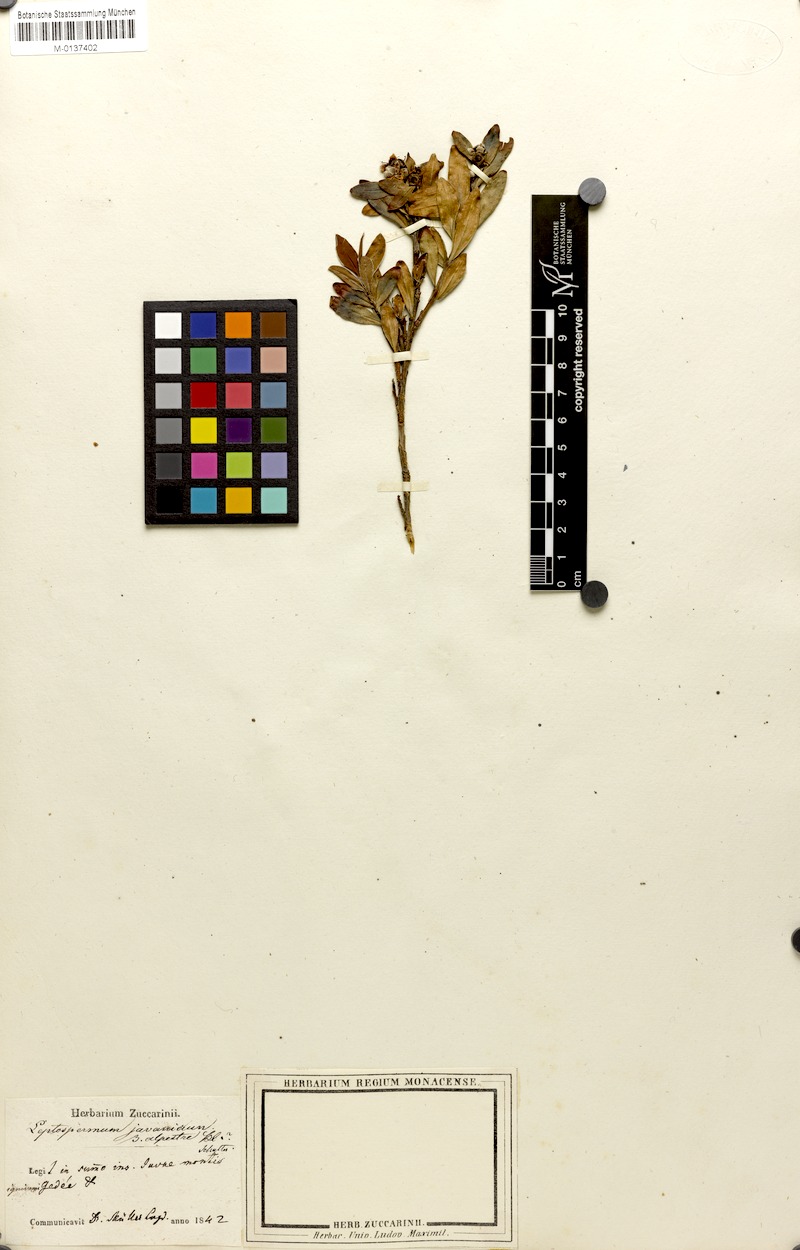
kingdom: Plantae
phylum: Tracheophyta
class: Magnoliopsida
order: Myrtales
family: Myrtaceae
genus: Leptospermum
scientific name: Leptospermum javanicum
